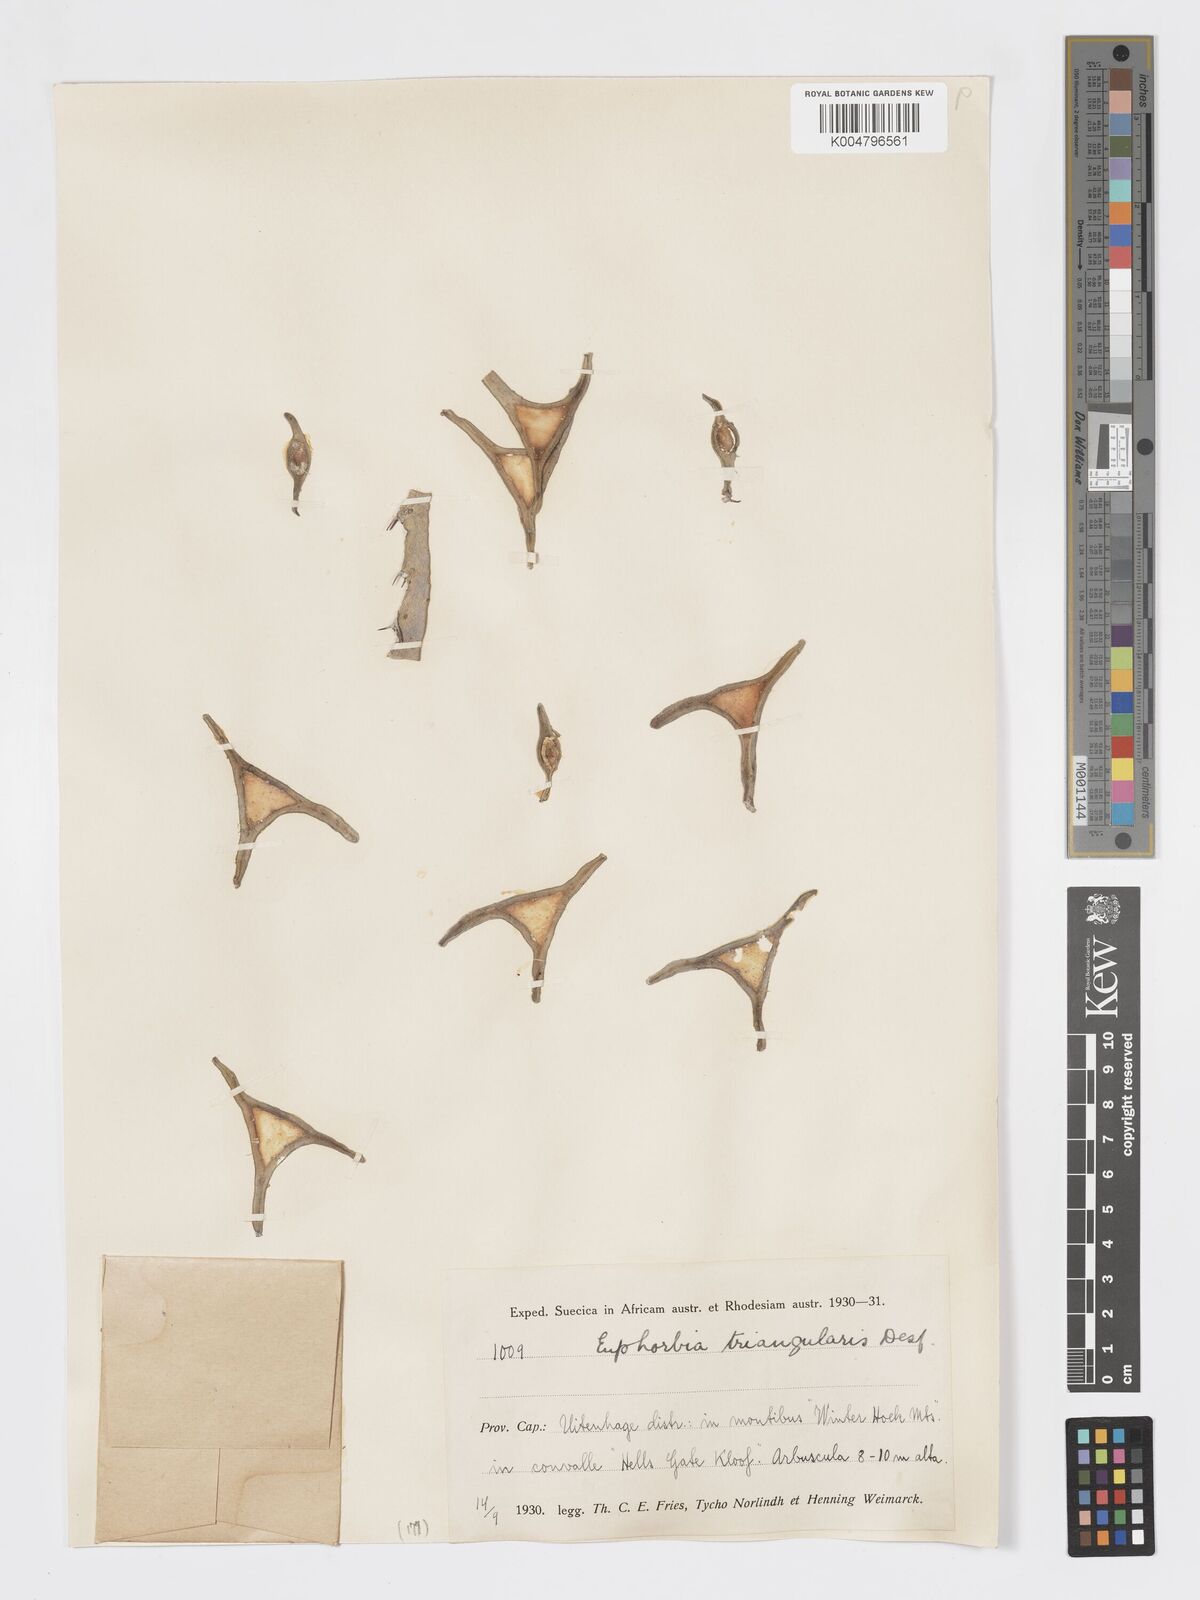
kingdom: Plantae
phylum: Tracheophyta
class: Magnoliopsida
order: Malpighiales
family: Euphorbiaceae
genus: Euphorbia
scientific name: Euphorbia triangularis
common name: Chandelier tree
